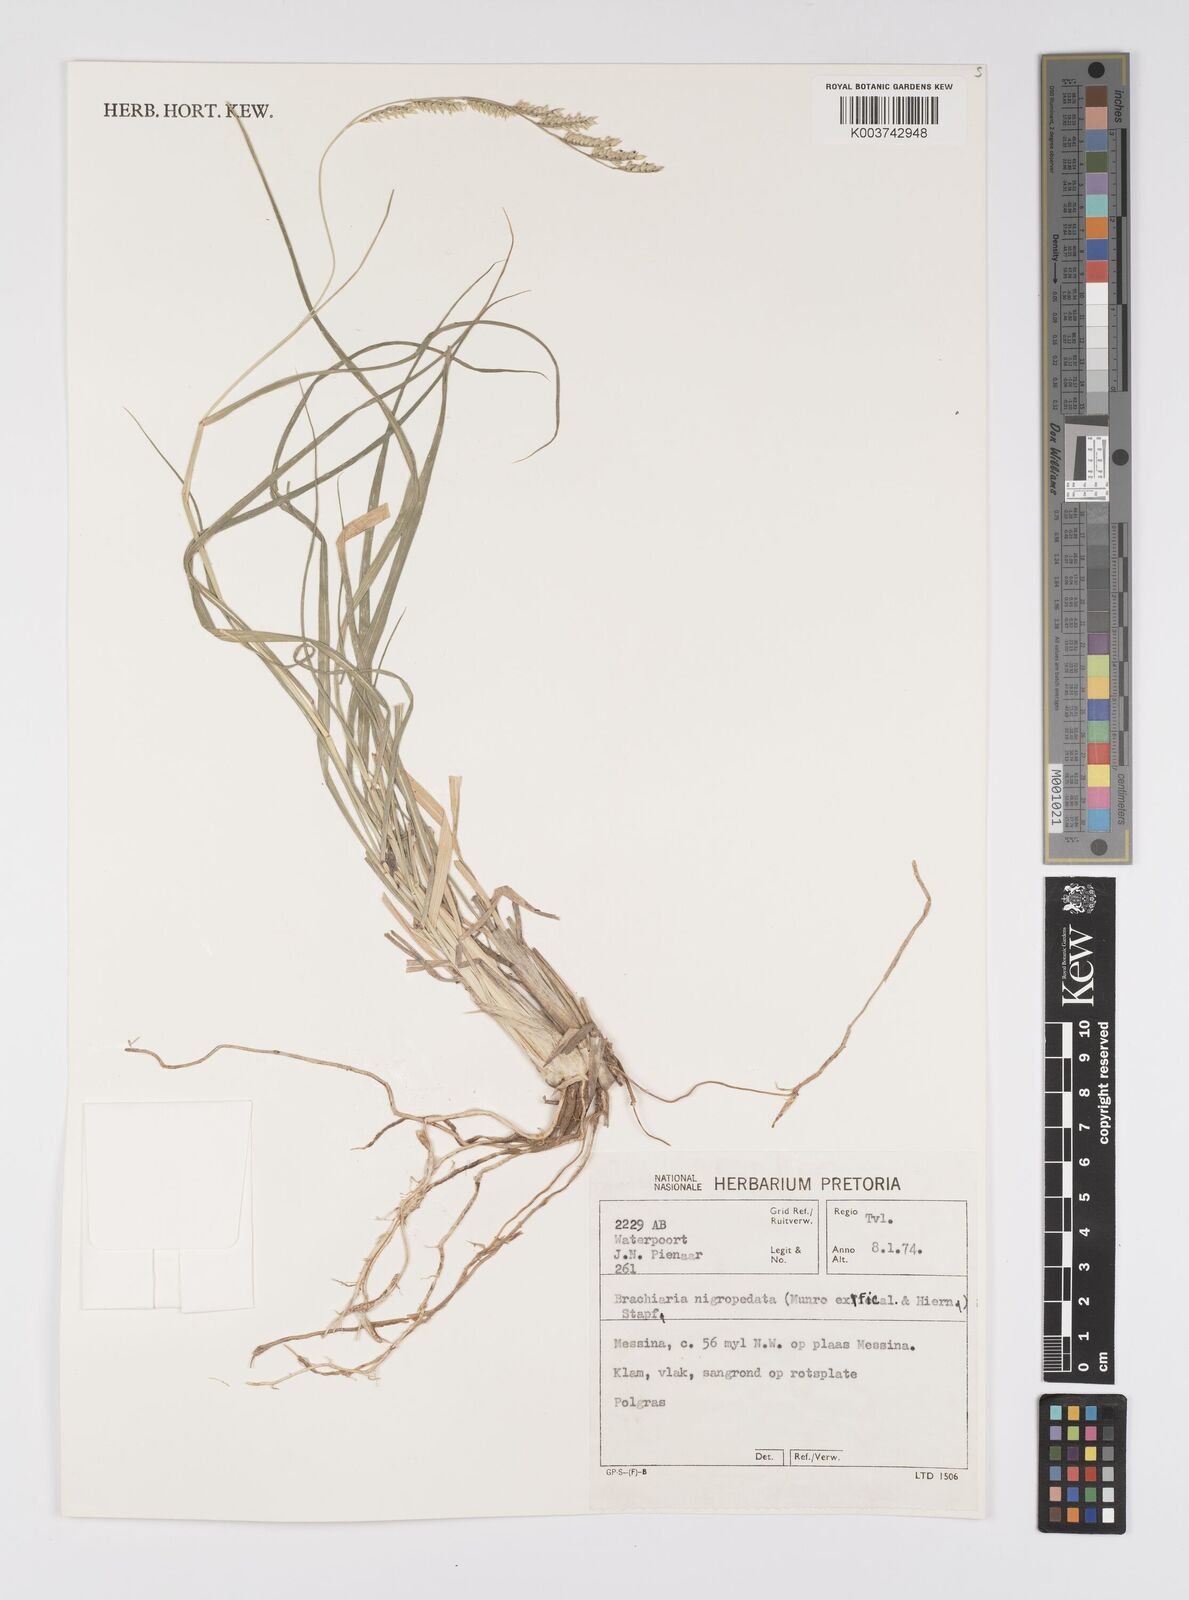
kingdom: Plantae
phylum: Tracheophyta
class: Liliopsida
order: Poales
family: Poaceae
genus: Urochloa
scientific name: Urochloa nigropedata
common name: Spotted signal grass
